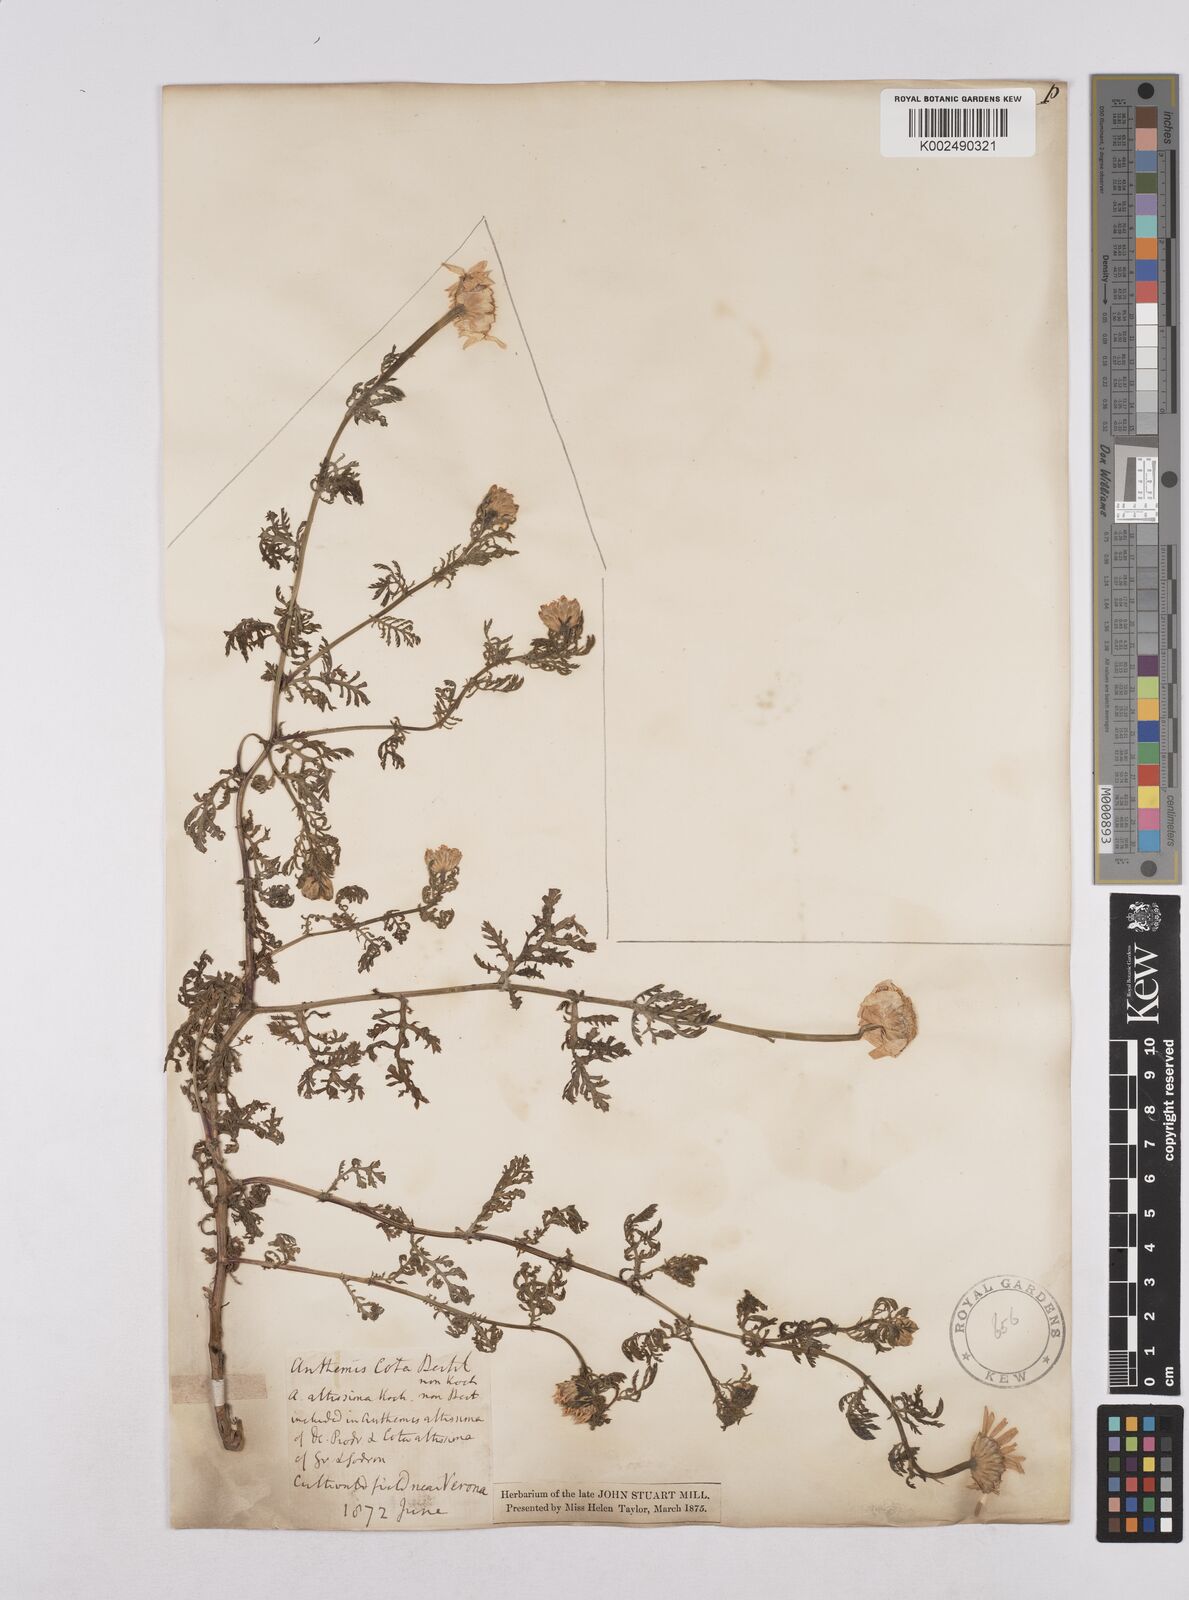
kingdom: Plantae
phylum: Tracheophyta
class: Magnoliopsida
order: Asterales
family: Asteraceae
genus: Matricaria
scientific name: Matricaria chamomilla
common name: Scented mayweed
